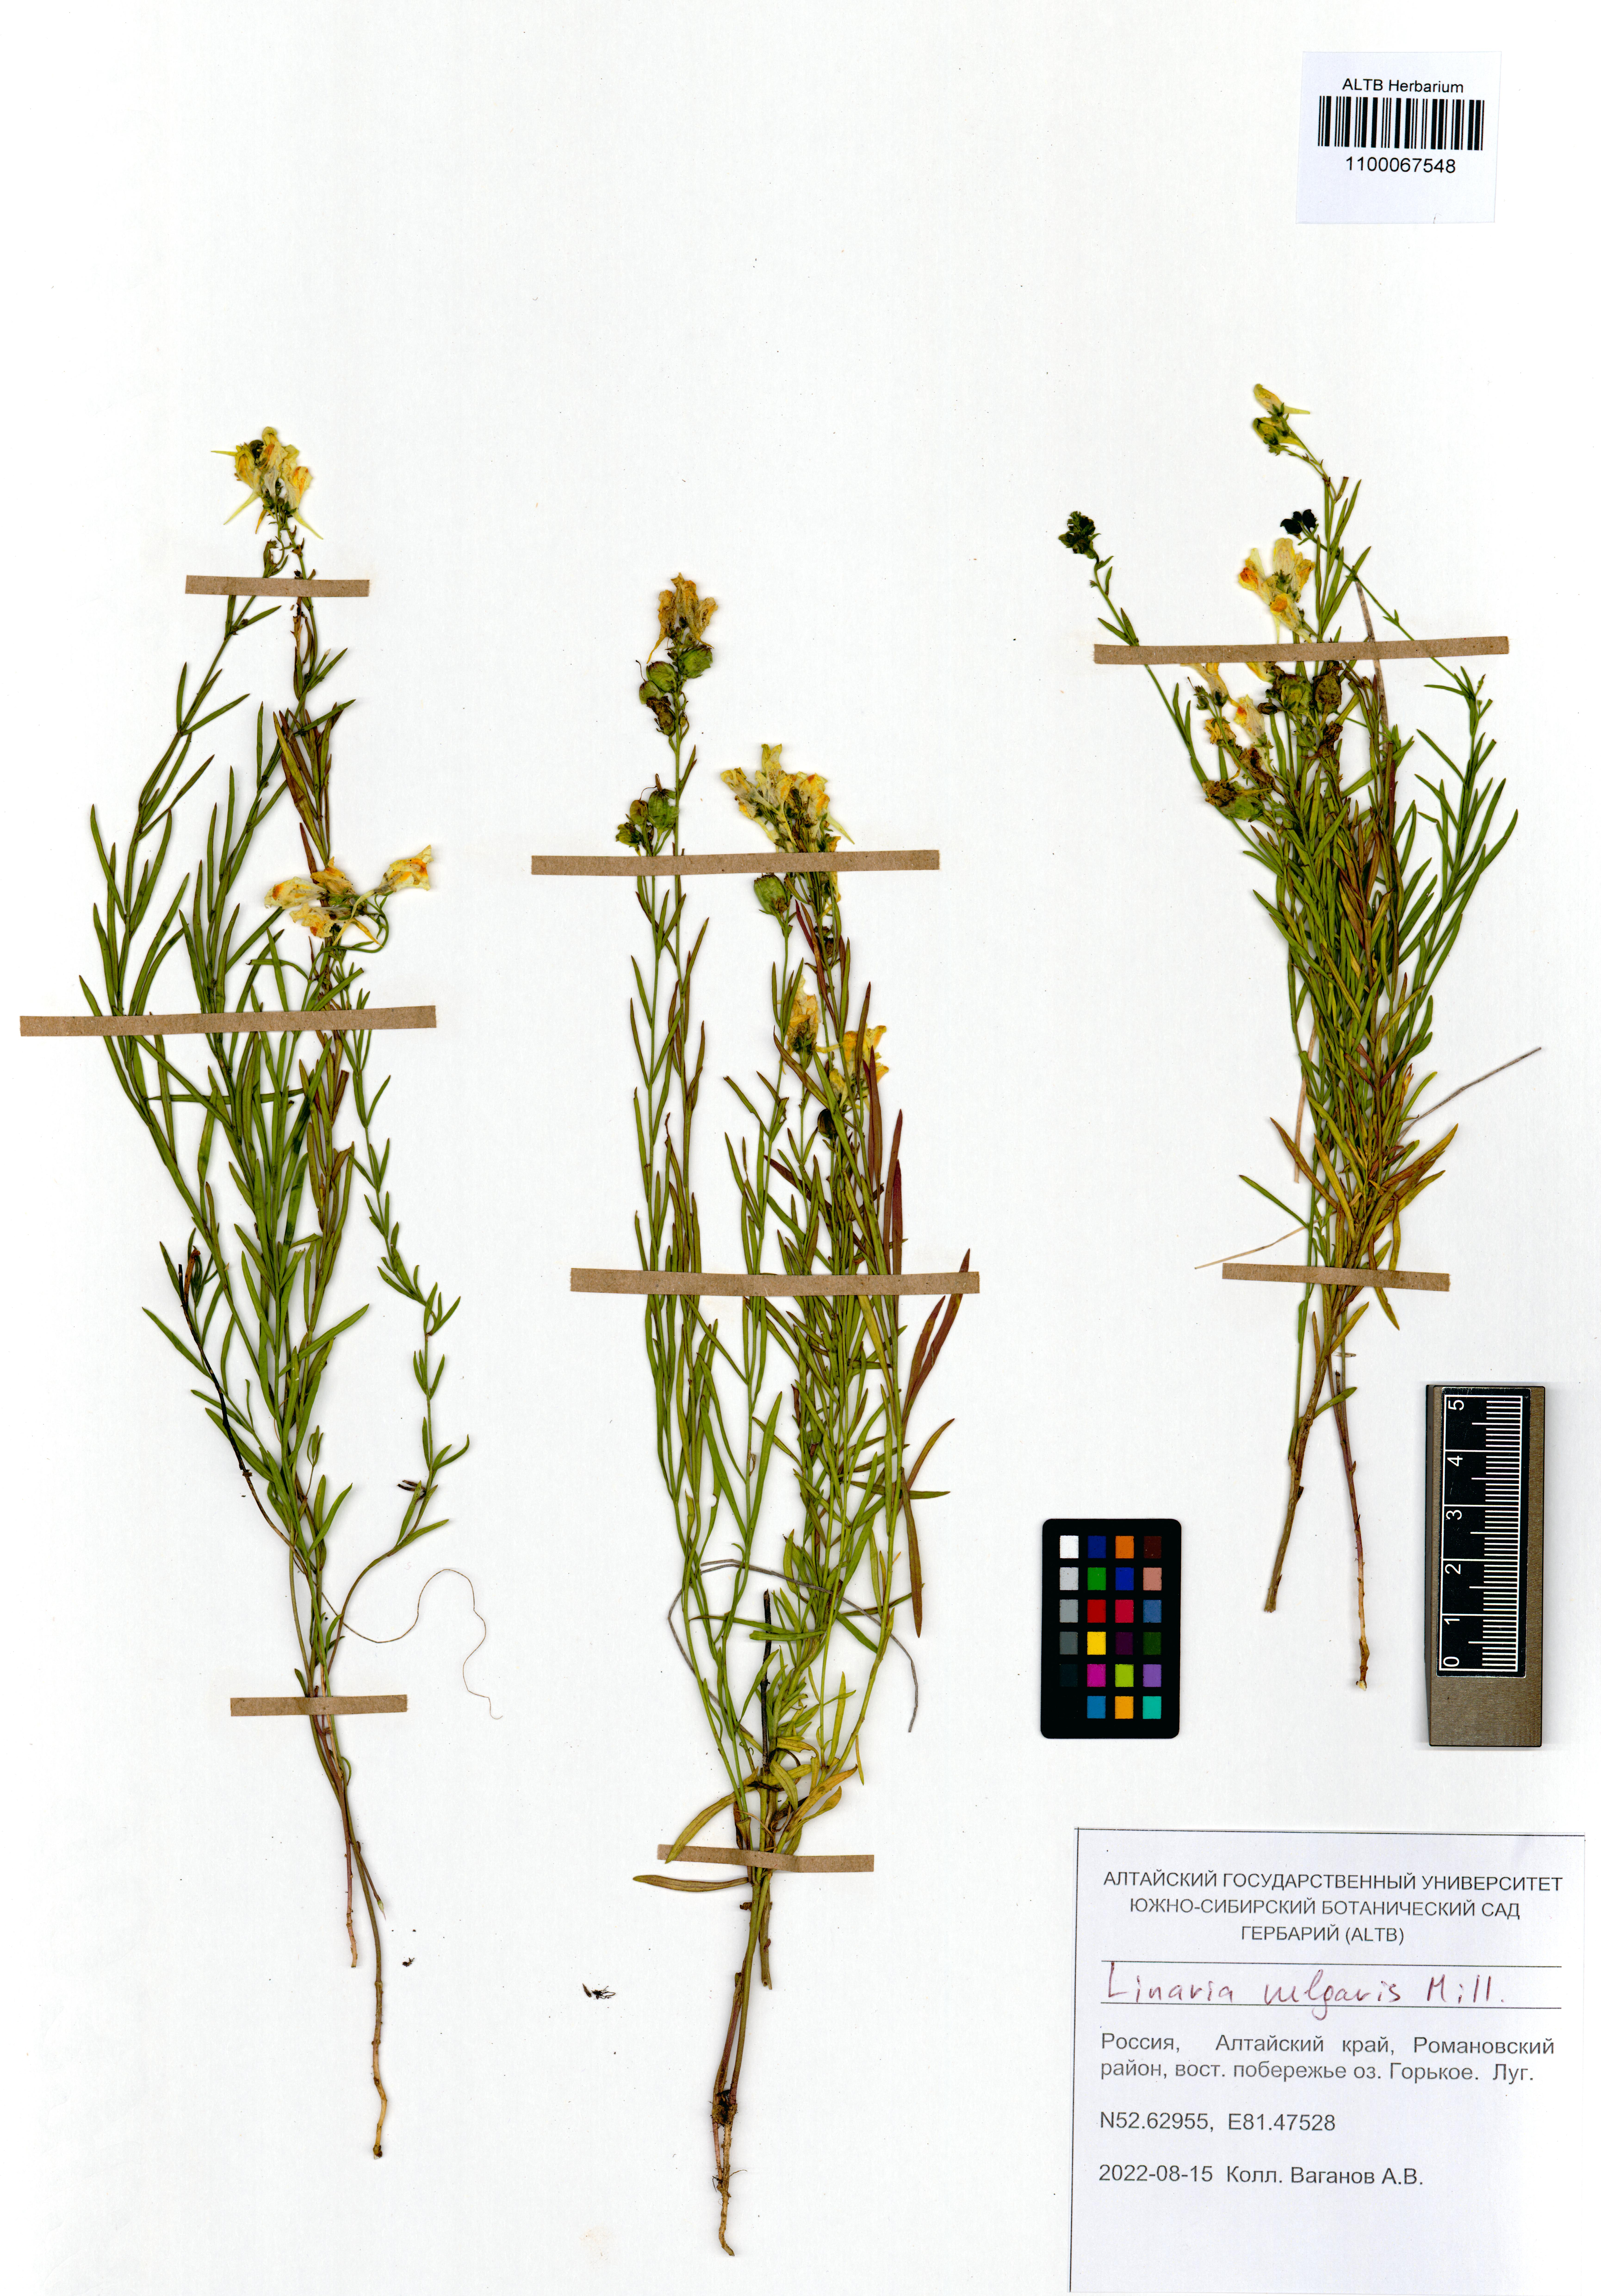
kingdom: Plantae
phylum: Tracheophyta
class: Magnoliopsida
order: Lamiales
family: Plantaginaceae
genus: Linaria
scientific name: Linaria vulgaris
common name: Butter and eggs
